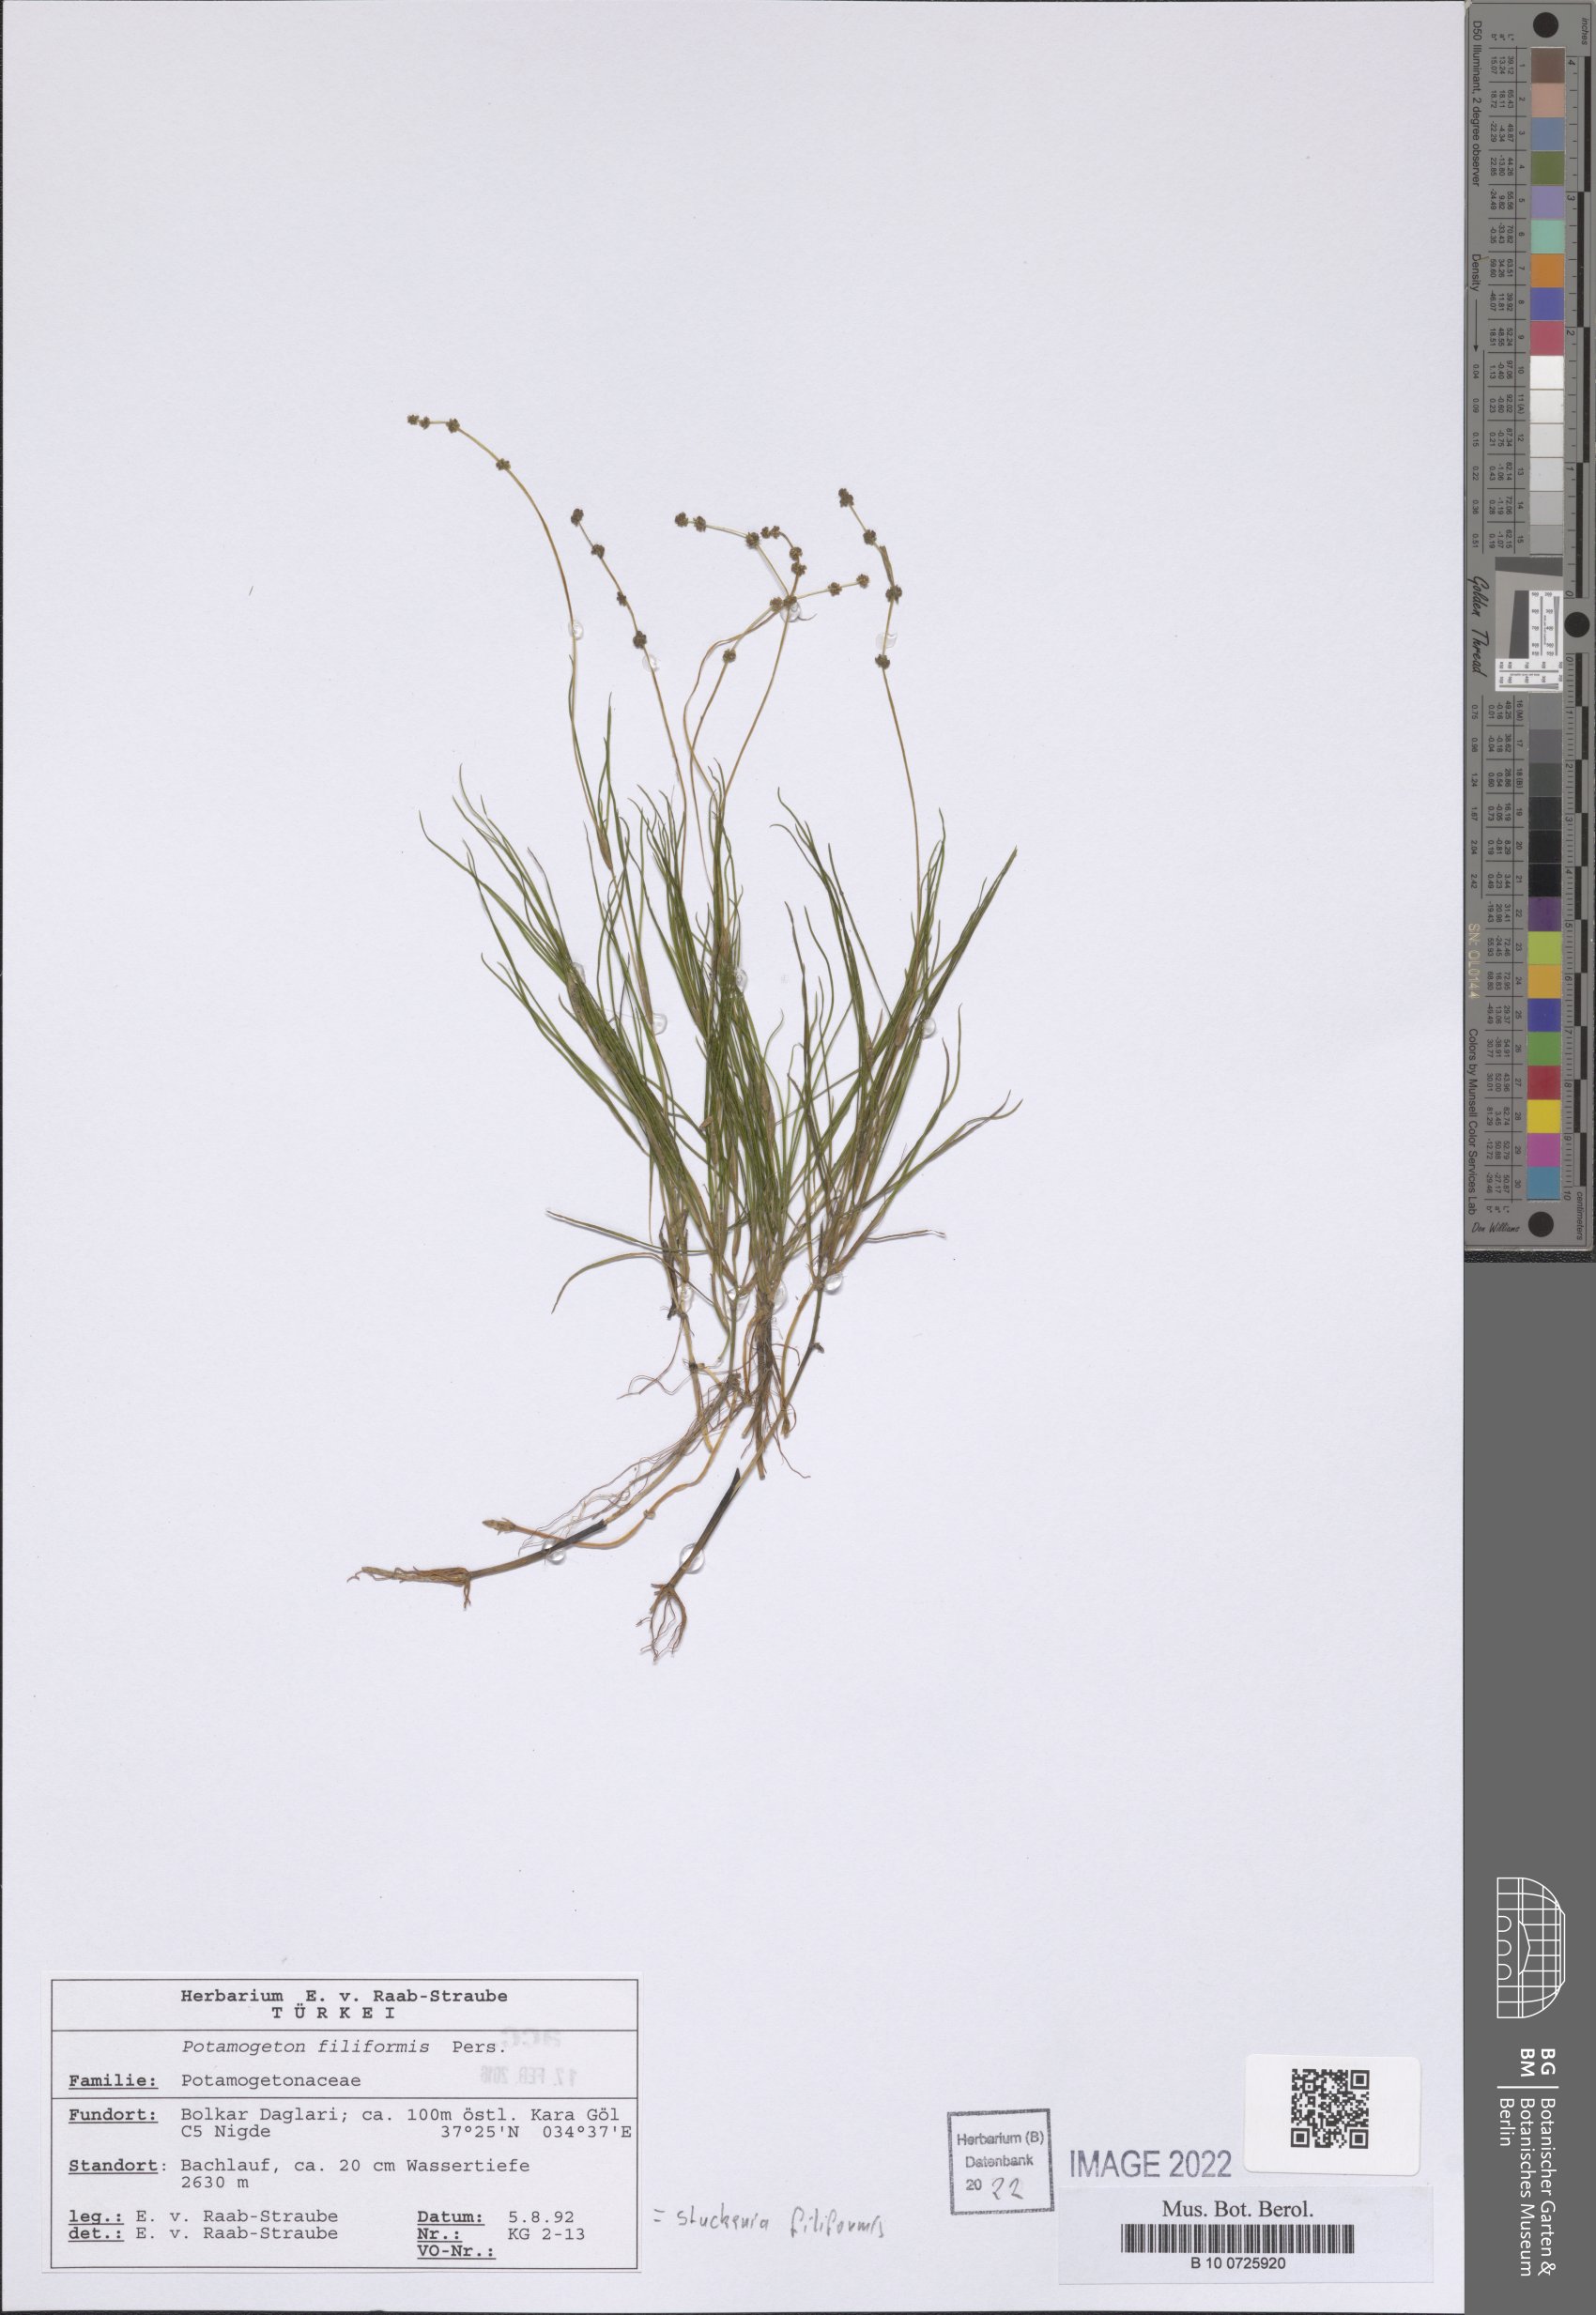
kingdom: Plantae
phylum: Tracheophyta
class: Liliopsida
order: Alismatales
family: Potamogetonaceae
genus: Stuckenia
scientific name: Stuckenia filiformis
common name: Alpine thread-leaved pondweed
